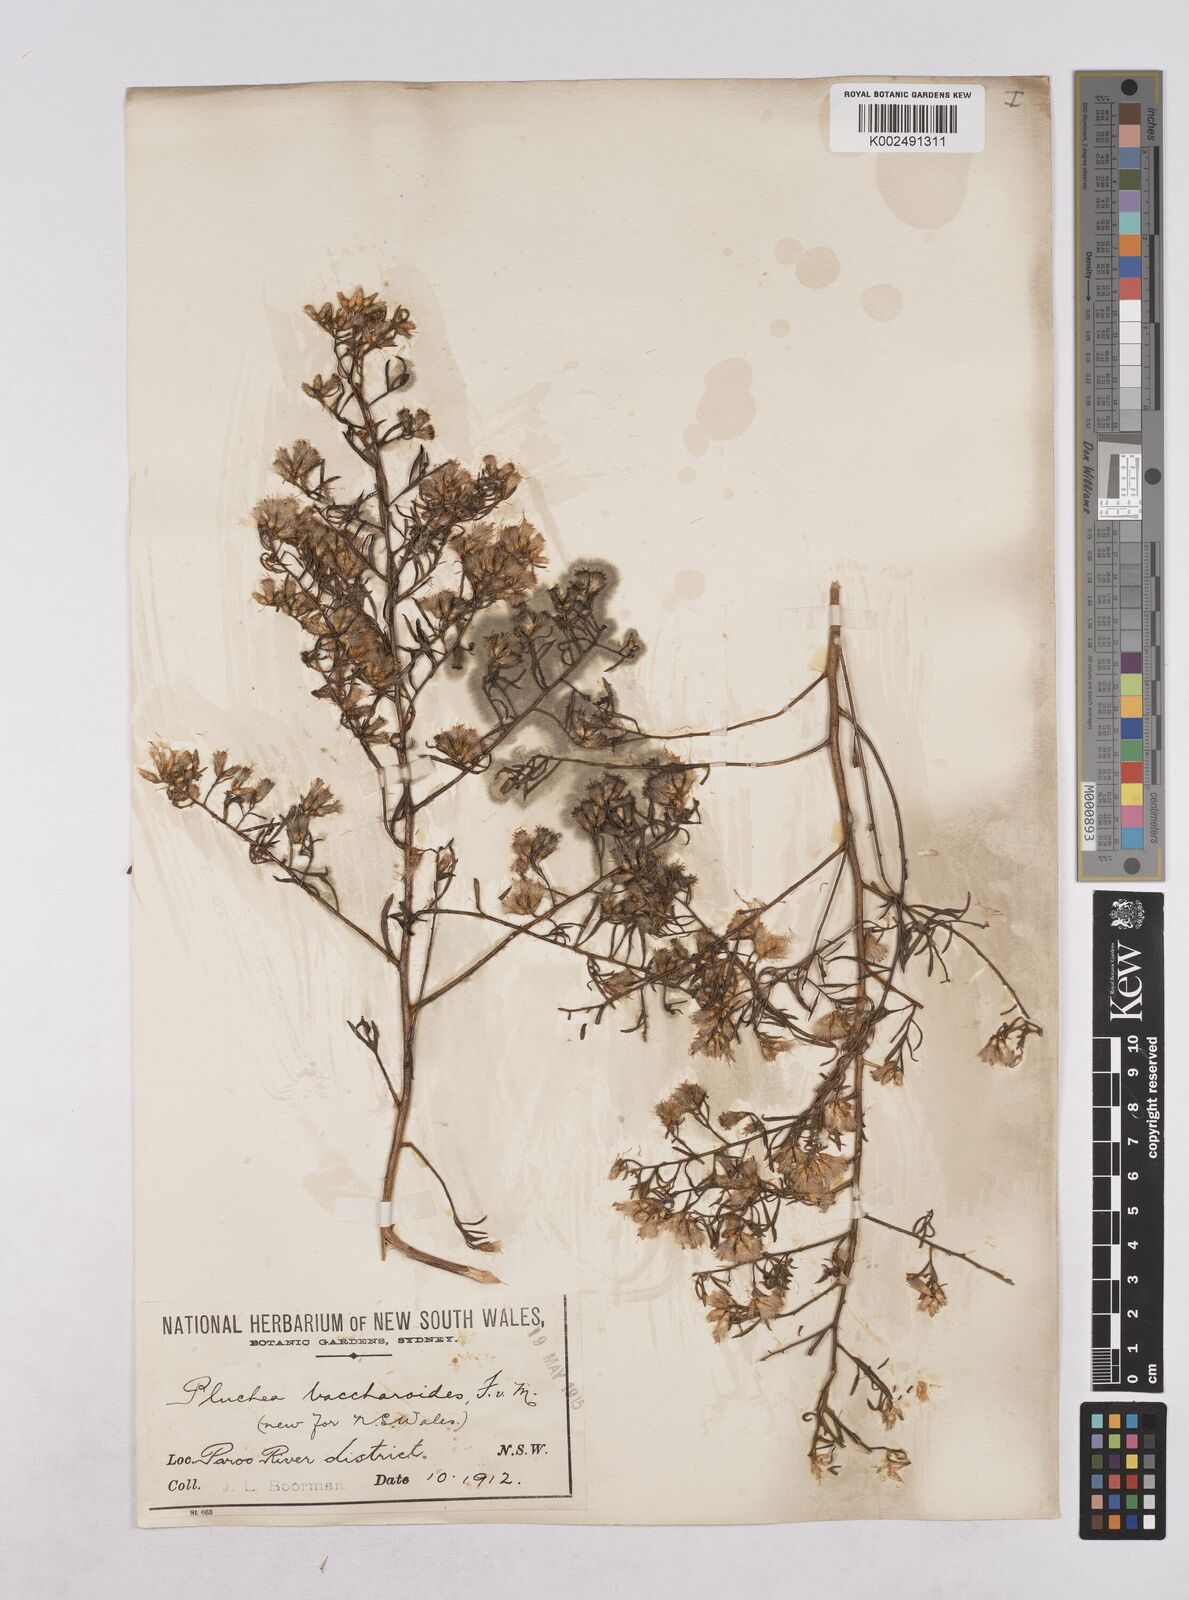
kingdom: Plantae
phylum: Tracheophyta
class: Magnoliopsida
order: Asterales
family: Asteraceae
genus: Pluchea
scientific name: Pluchea baccharoides
